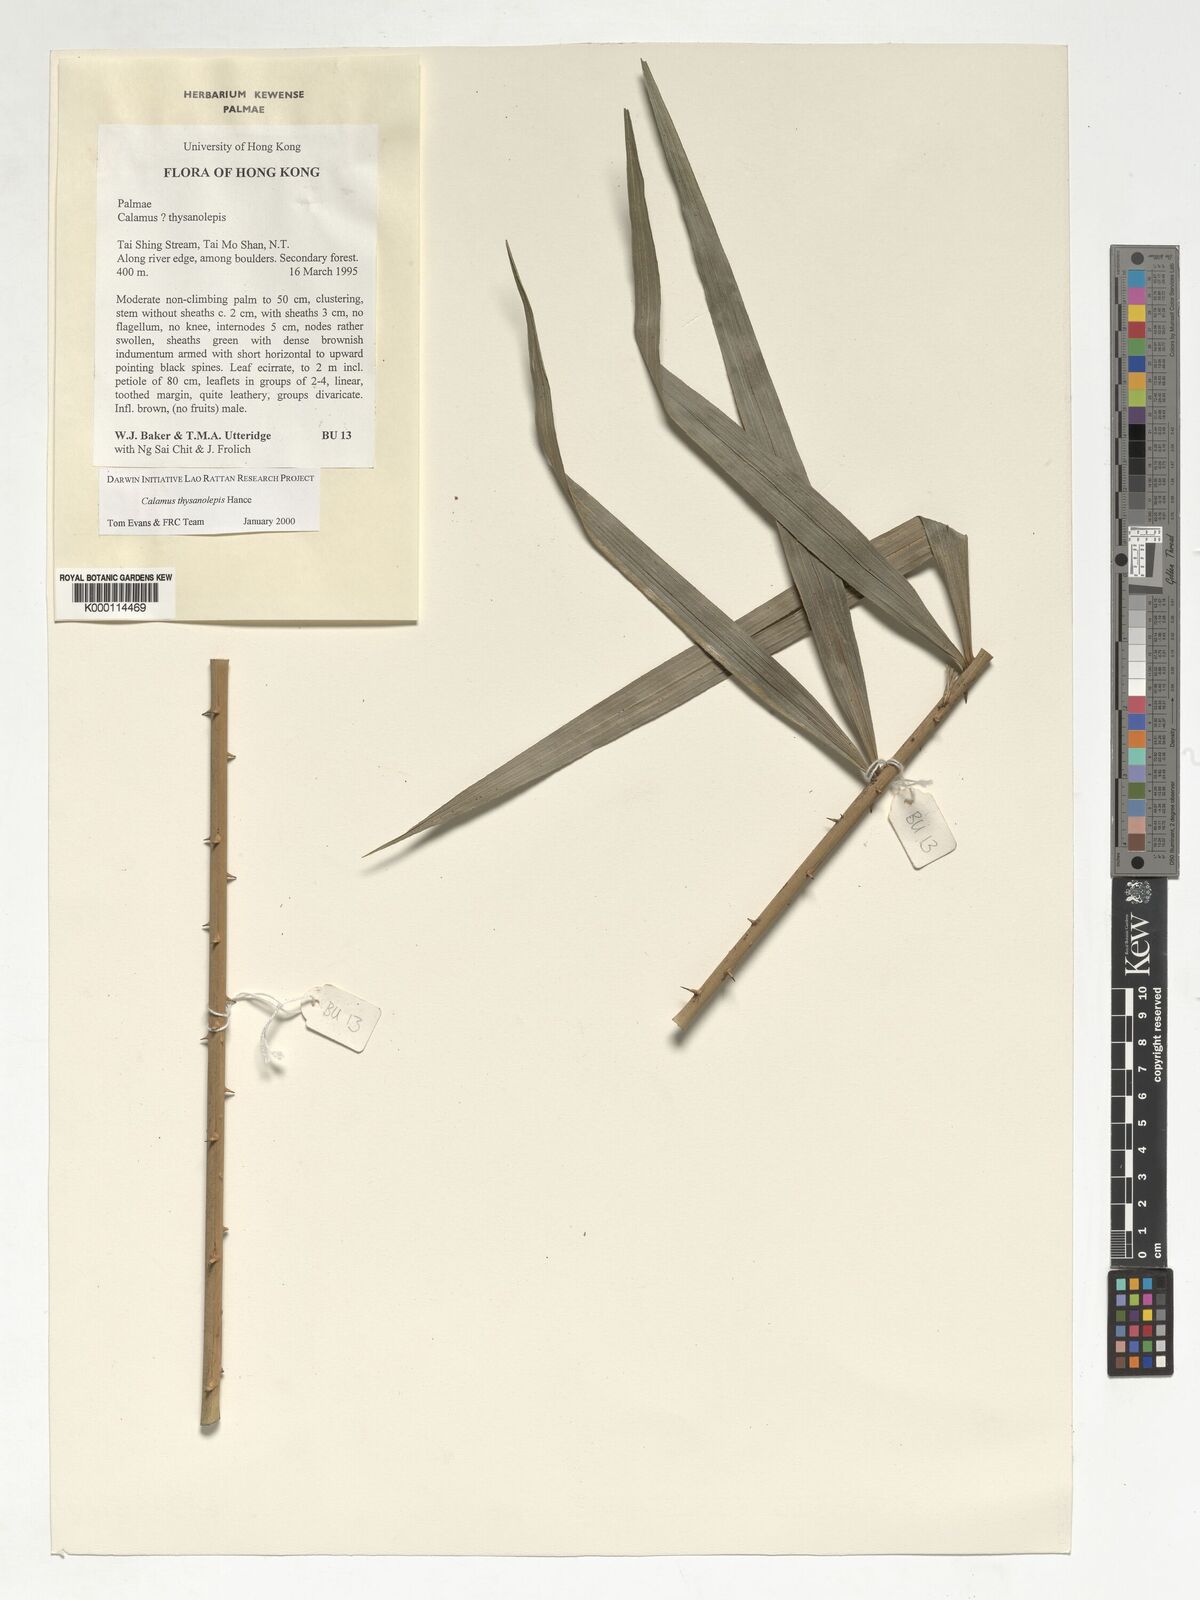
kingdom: Plantae
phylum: Tracheophyta
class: Liliopsida
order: Arecales
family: Arecaceae
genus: Calamus
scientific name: Calamus walkeri
